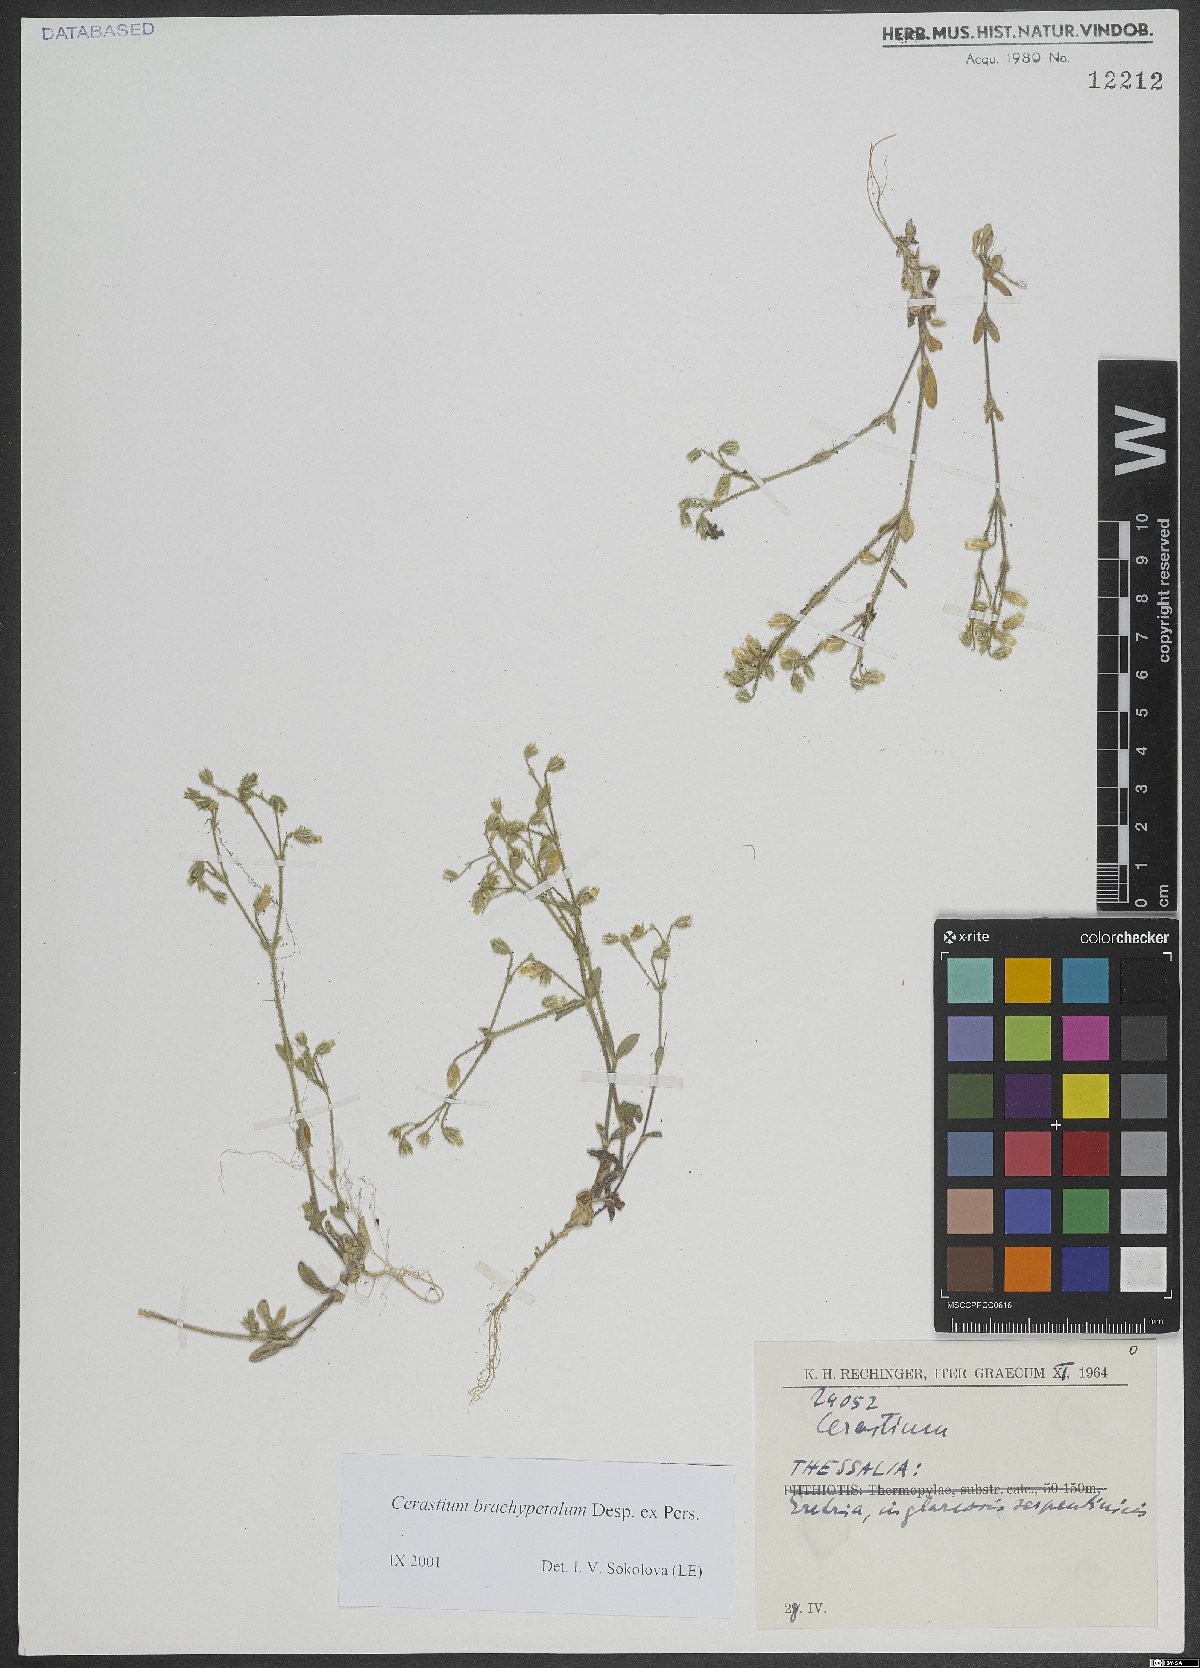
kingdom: Plantae
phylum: Tracheophyta
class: Magnoliopsida
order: Caryophyllales
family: Caryophyllaceae
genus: Cerastium
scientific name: Cerastium brachypetalum
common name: Grey mouse-ear
